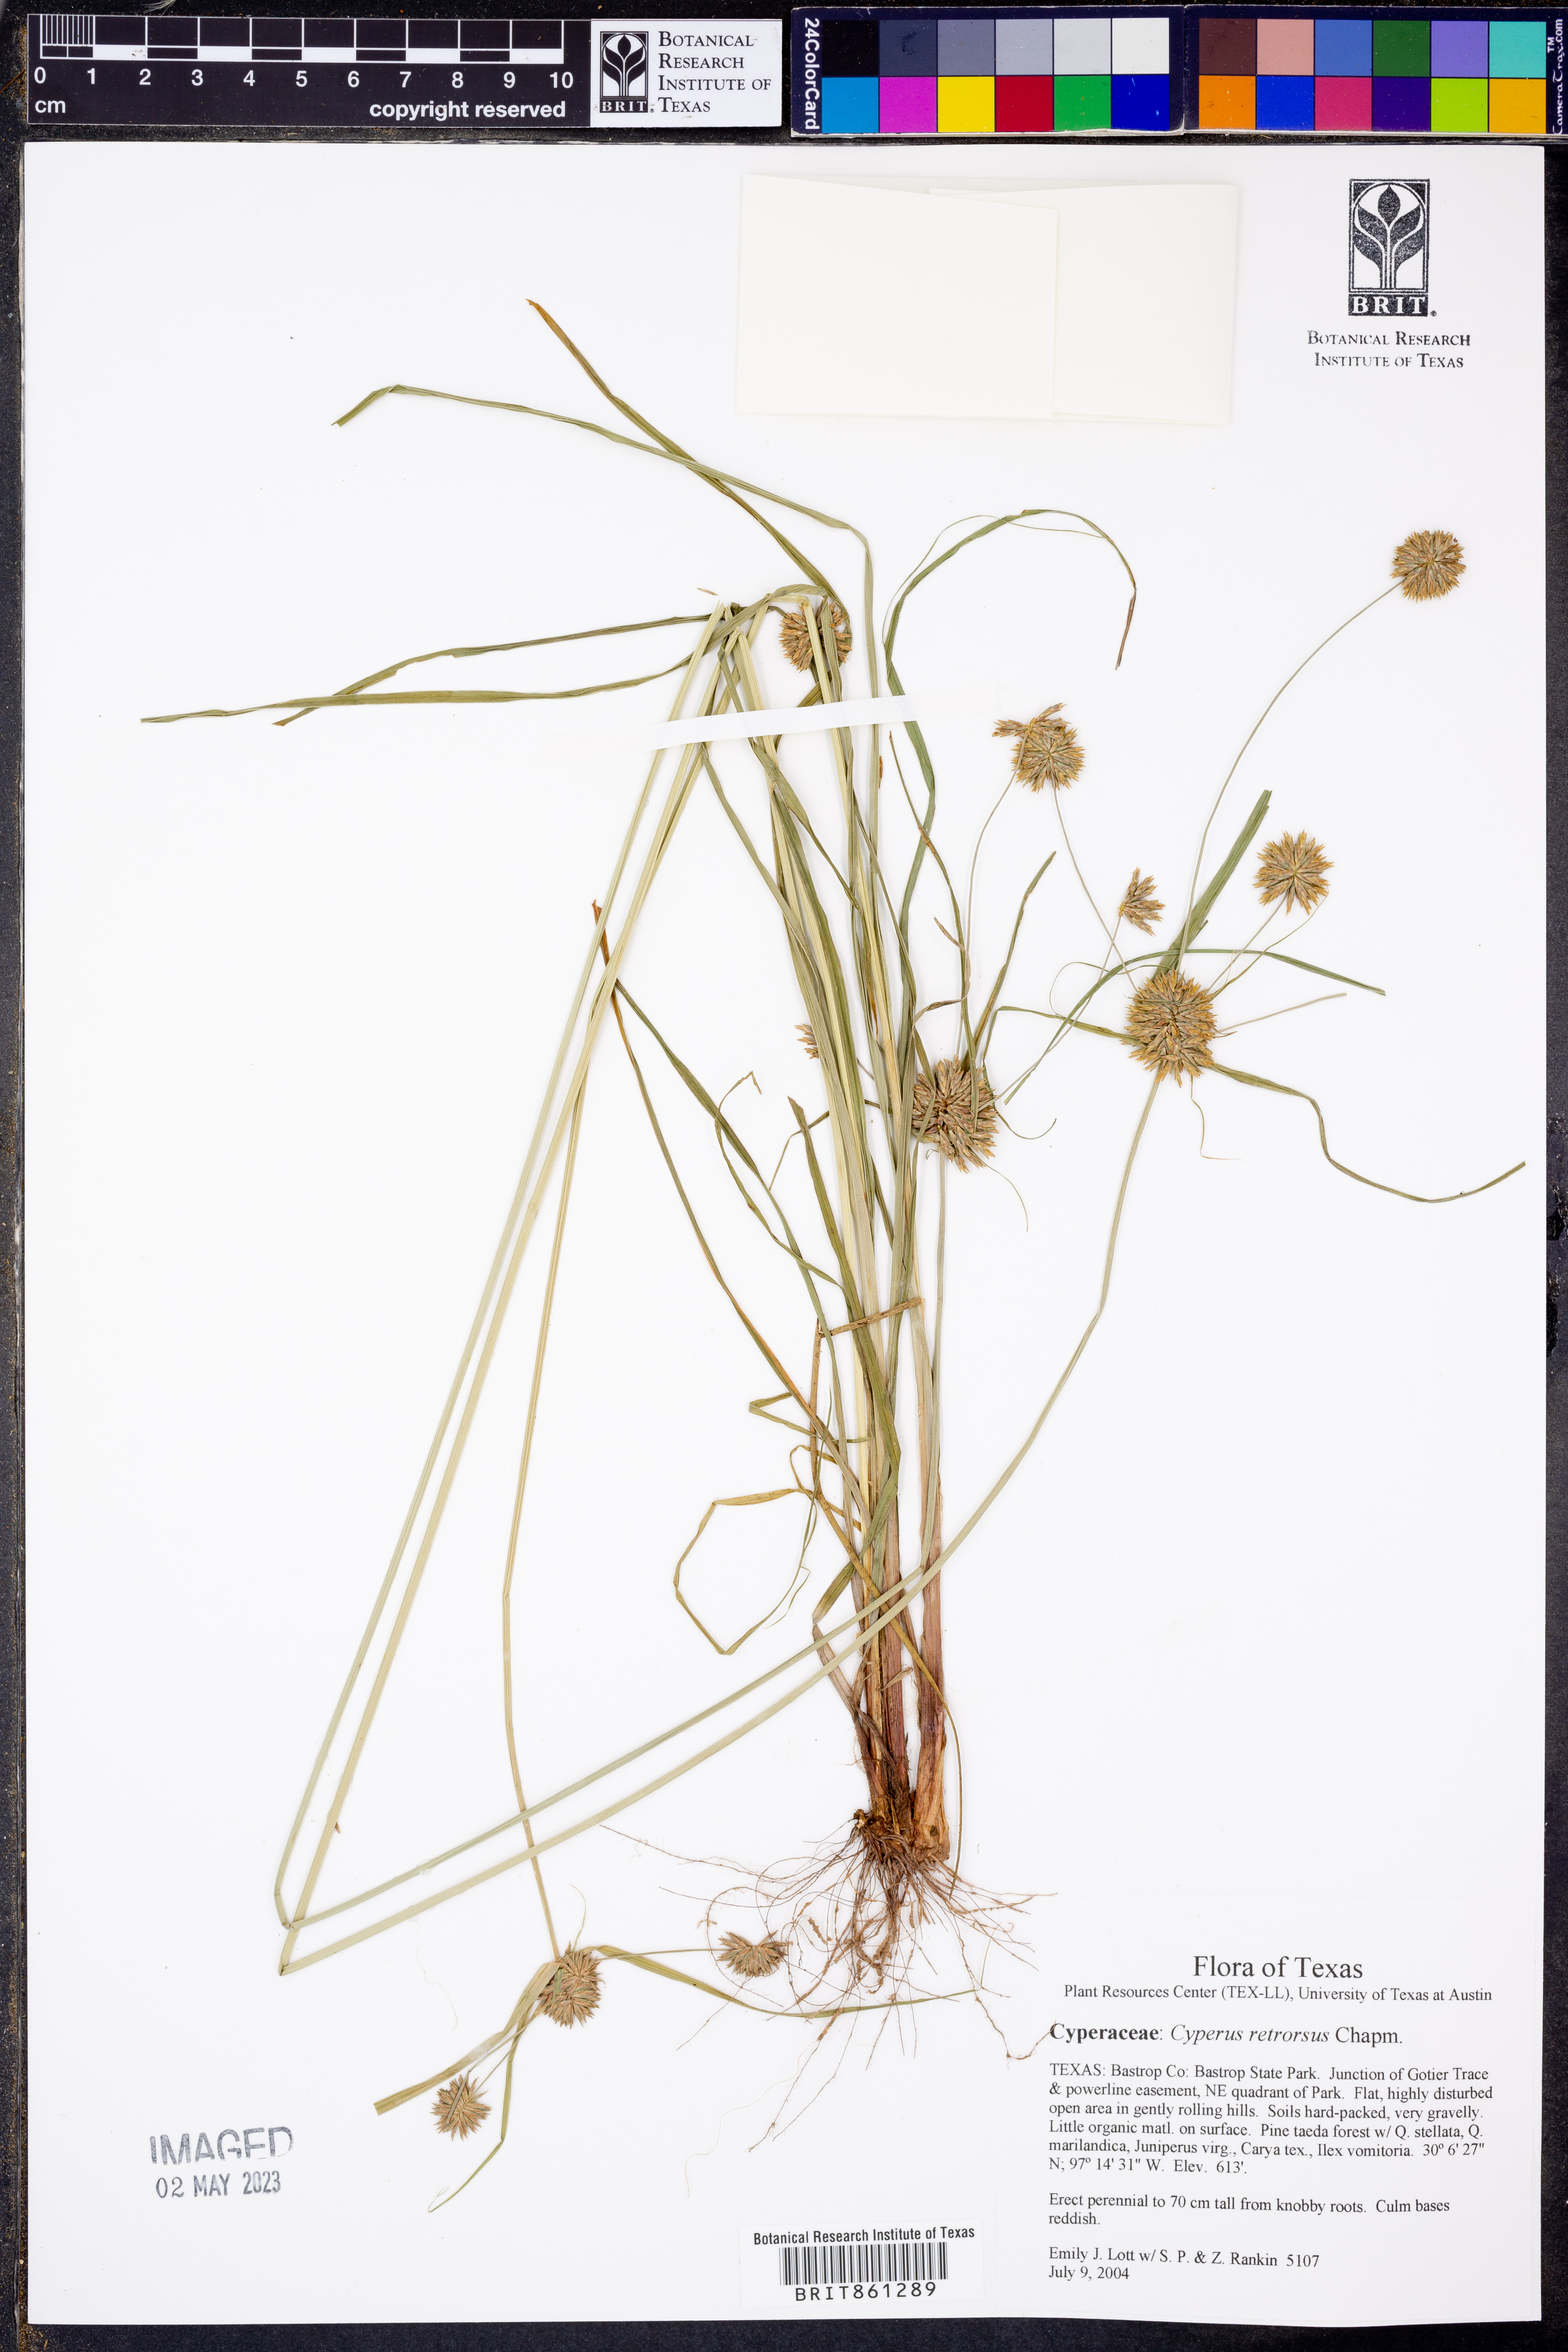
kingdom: Plantae
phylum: Tracheophyta
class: Liliopsida
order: Poales
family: Cyperaceae
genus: Cyperus
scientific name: Cyperus retrorsus
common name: Pinebarren flat sedge
